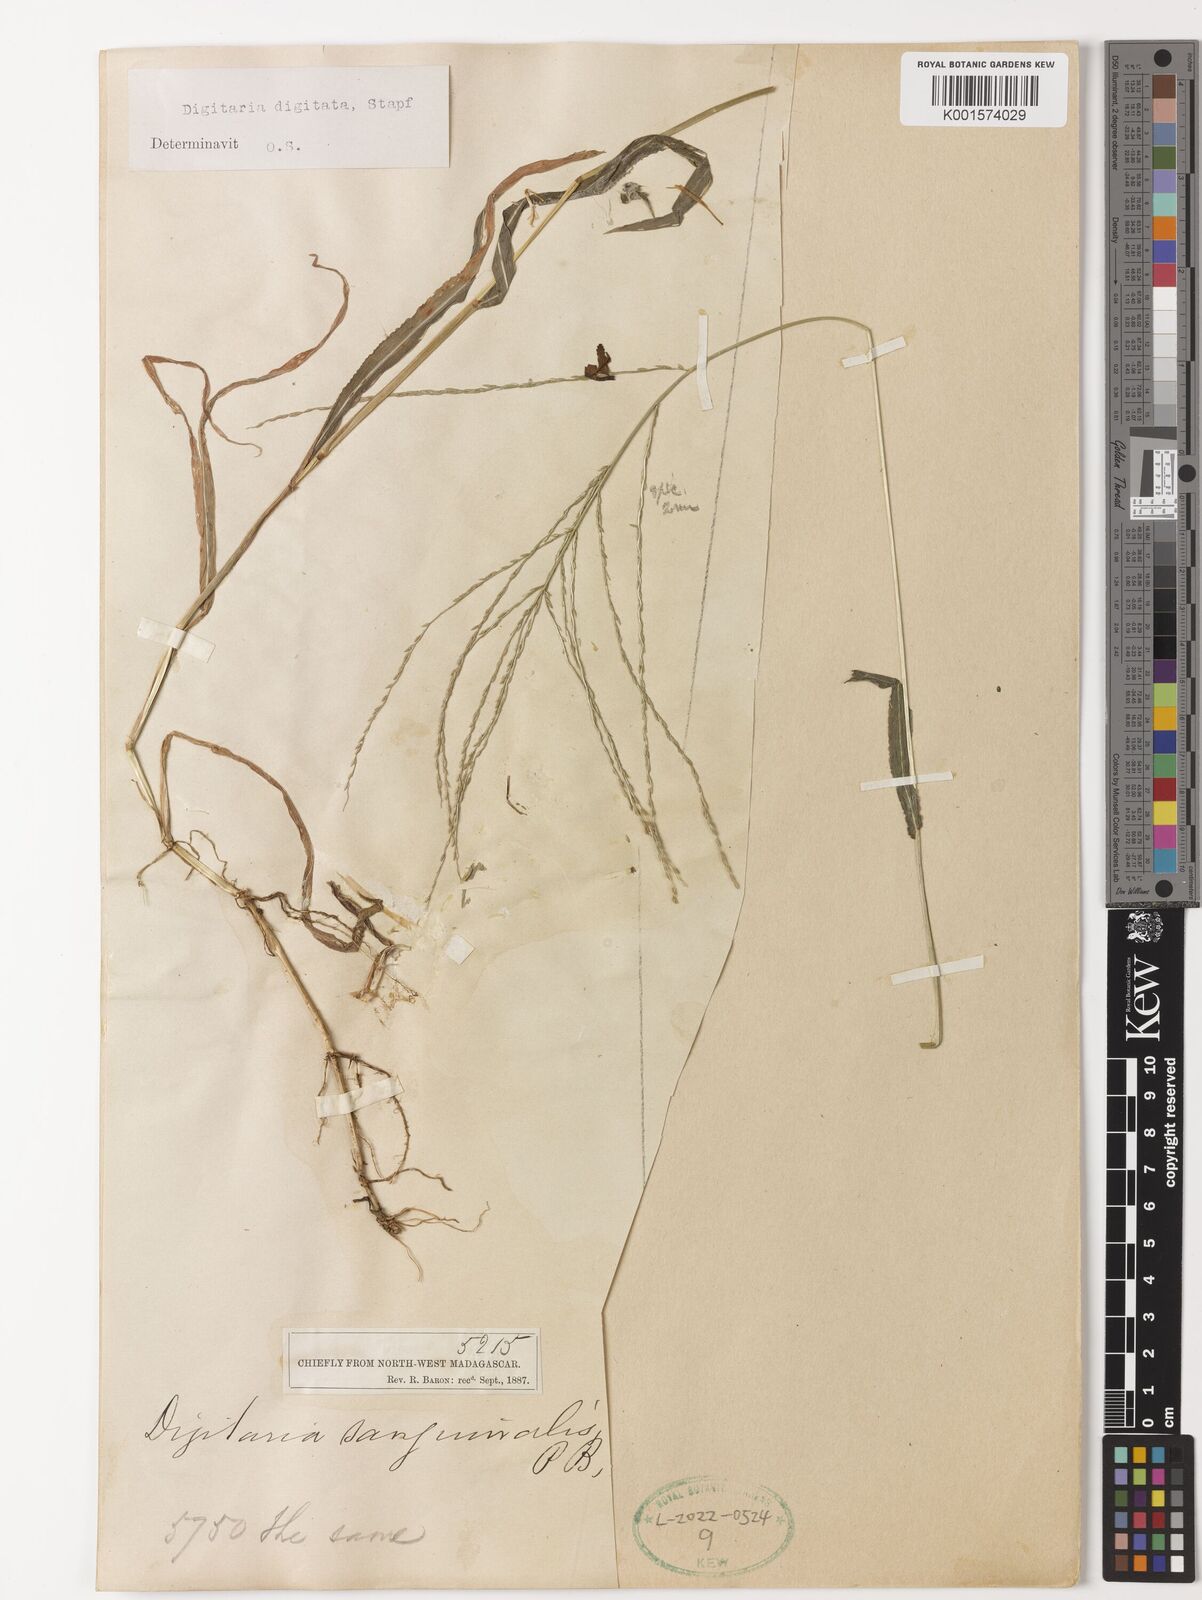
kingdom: Plantae
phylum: Tracheophyta
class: Liliopsida
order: Poales
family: Poaceae
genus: Digitaria
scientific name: Digitaria horizontalis
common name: Jamaican crabgrass
